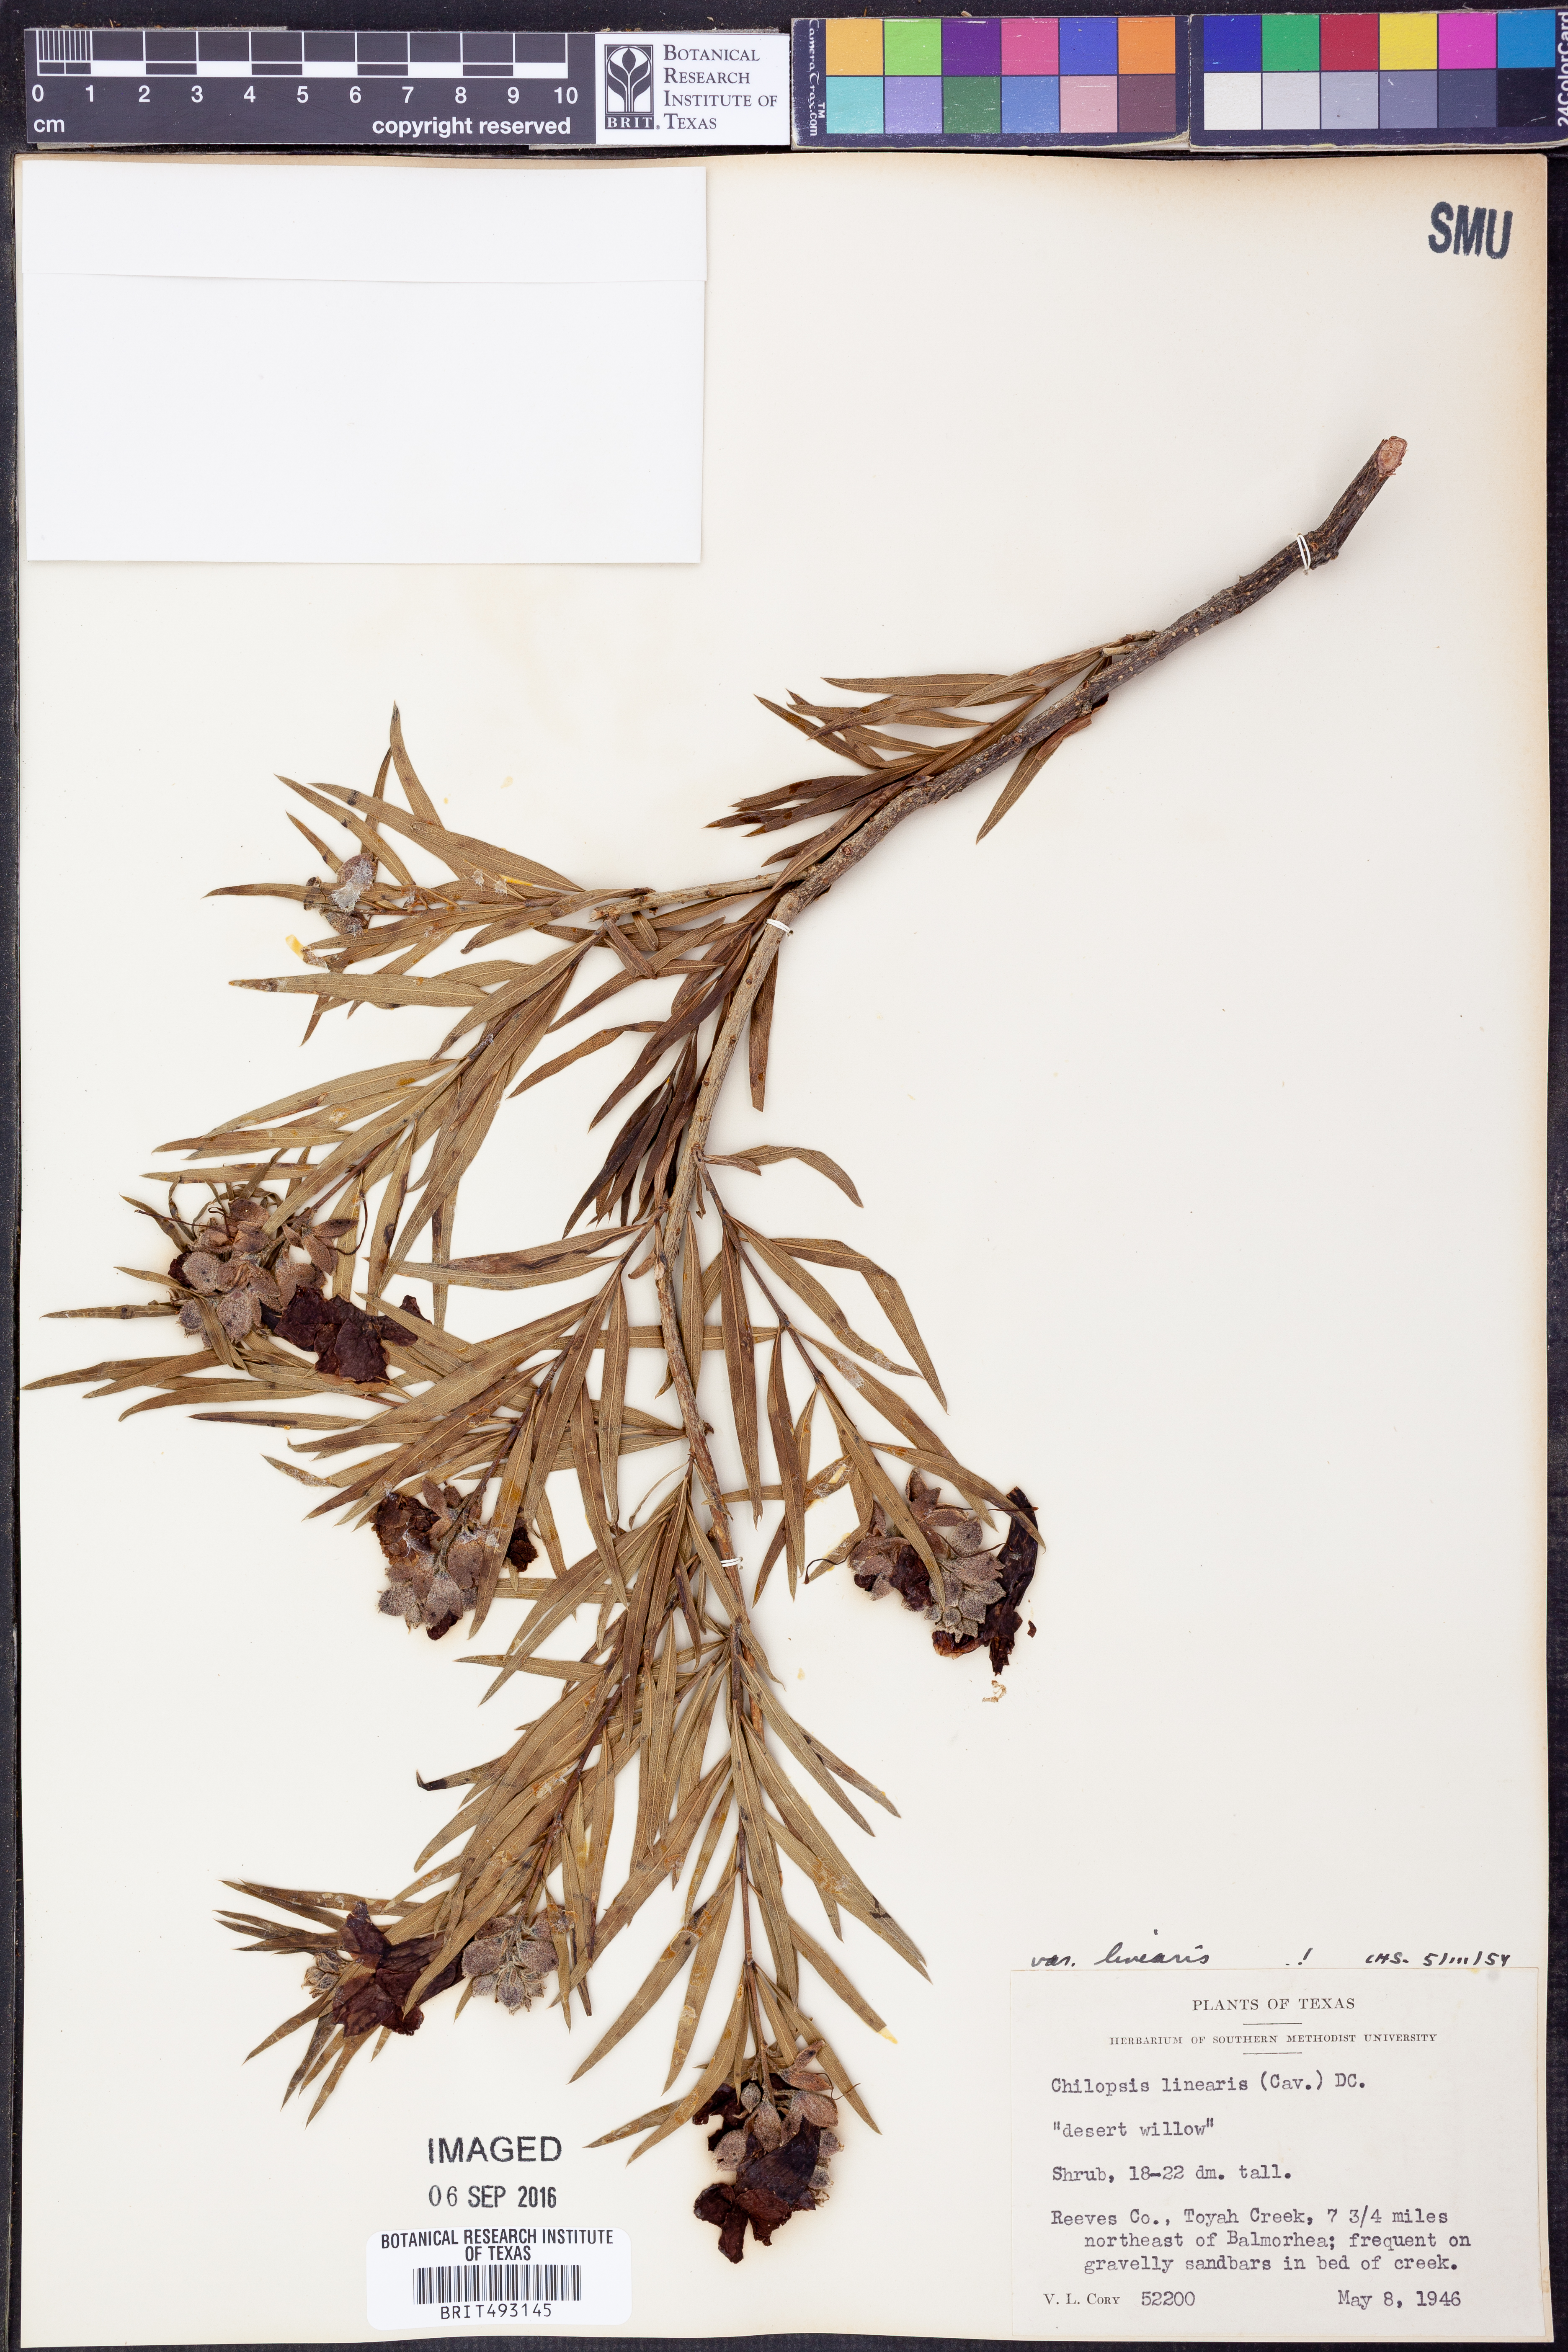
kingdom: Plantae
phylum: Tracheophyta
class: Magnoliopsida
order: Lamiales
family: Bignoniaceae
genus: Chilopsis
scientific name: Chilopsis linearis
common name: Desert-willow
